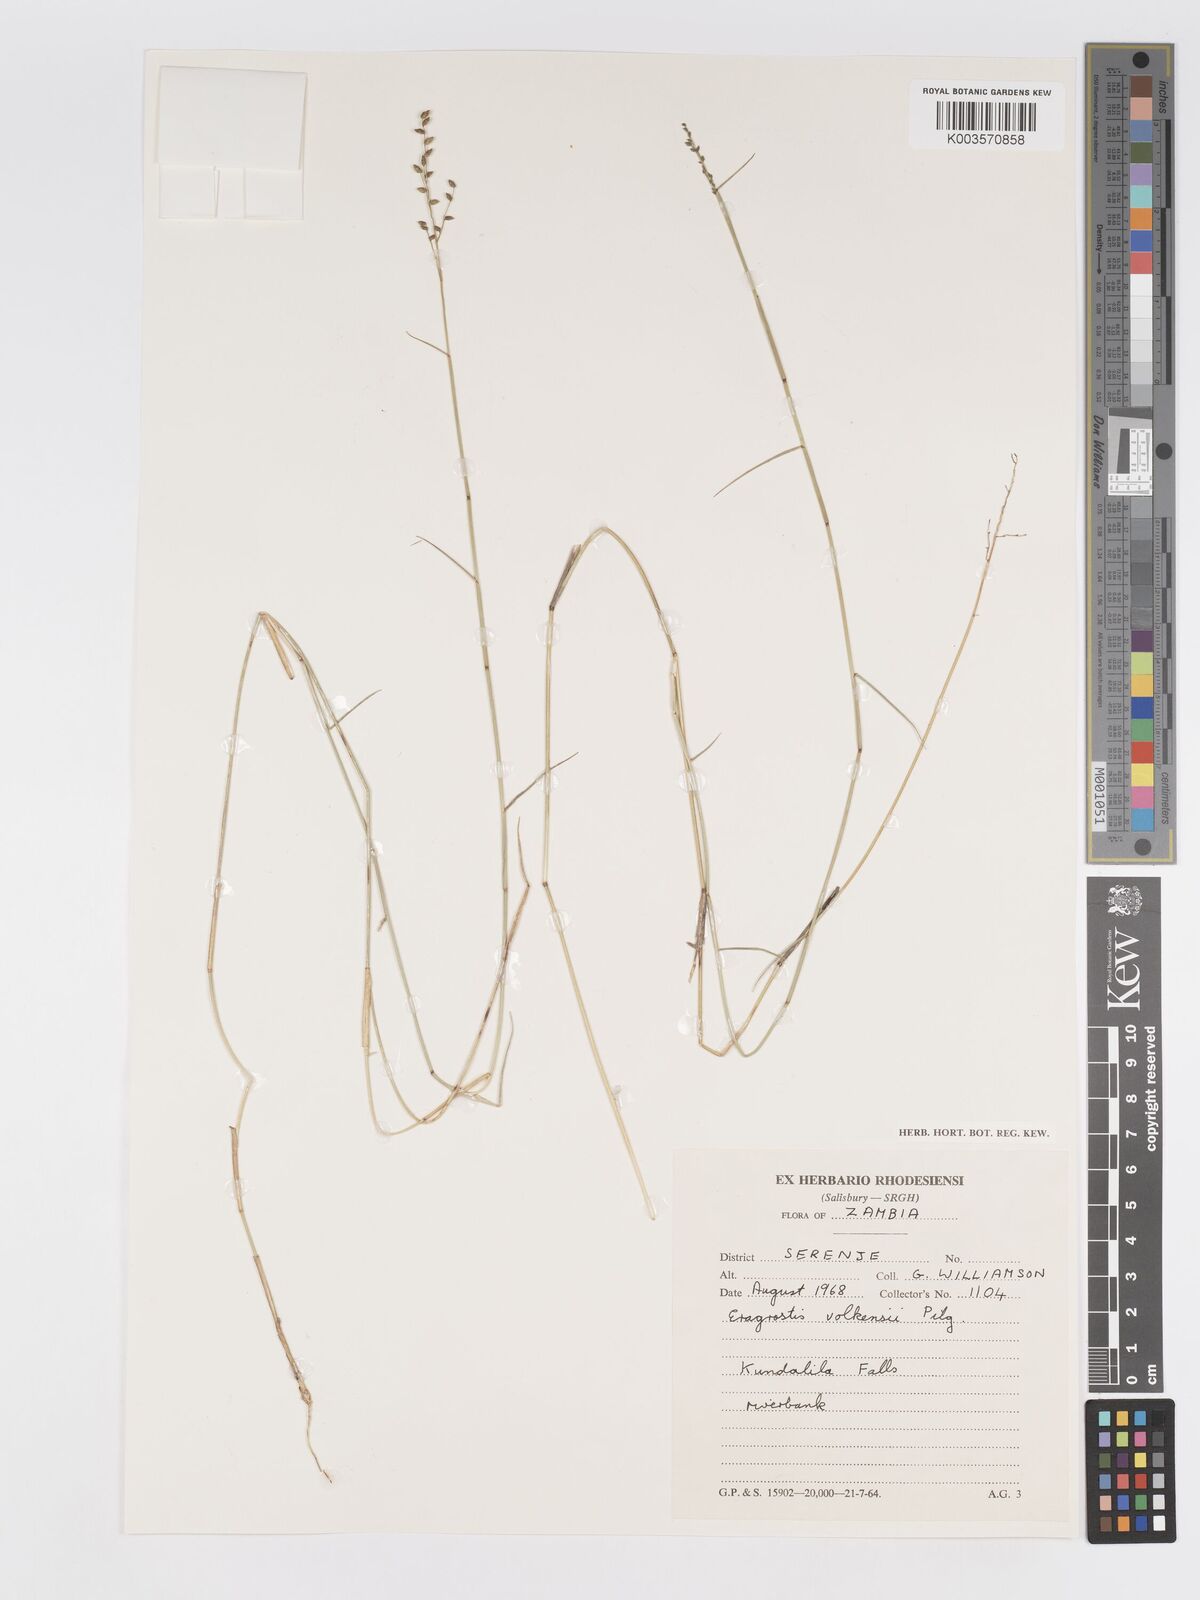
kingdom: Plantae
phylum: Tracheophyta
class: Liliopsida
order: Poales
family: Poaceae
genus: Eragrostis
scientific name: Eragrostis volkensii
